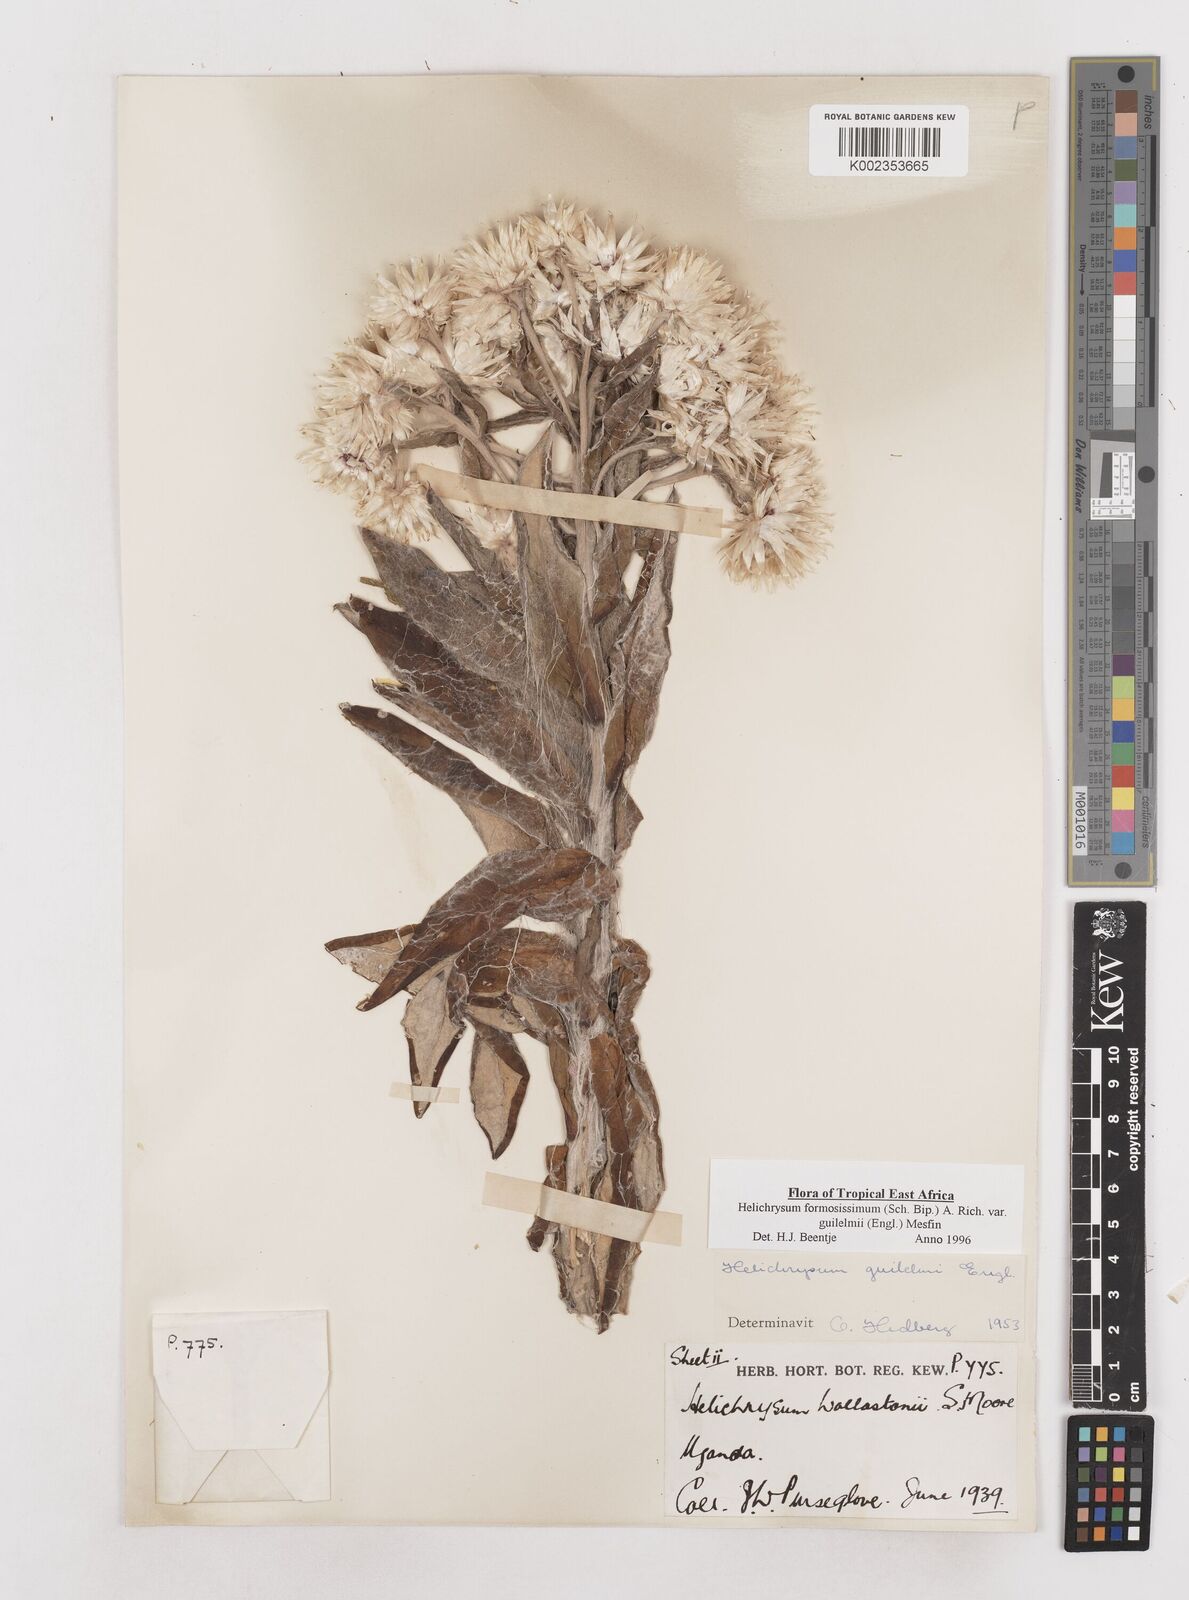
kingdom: Plantae
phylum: Tracheophyta
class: Magnoliopsida
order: Asterales
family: Asteraceae
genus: Helichrysum
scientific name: Helichrysum formosissimum
